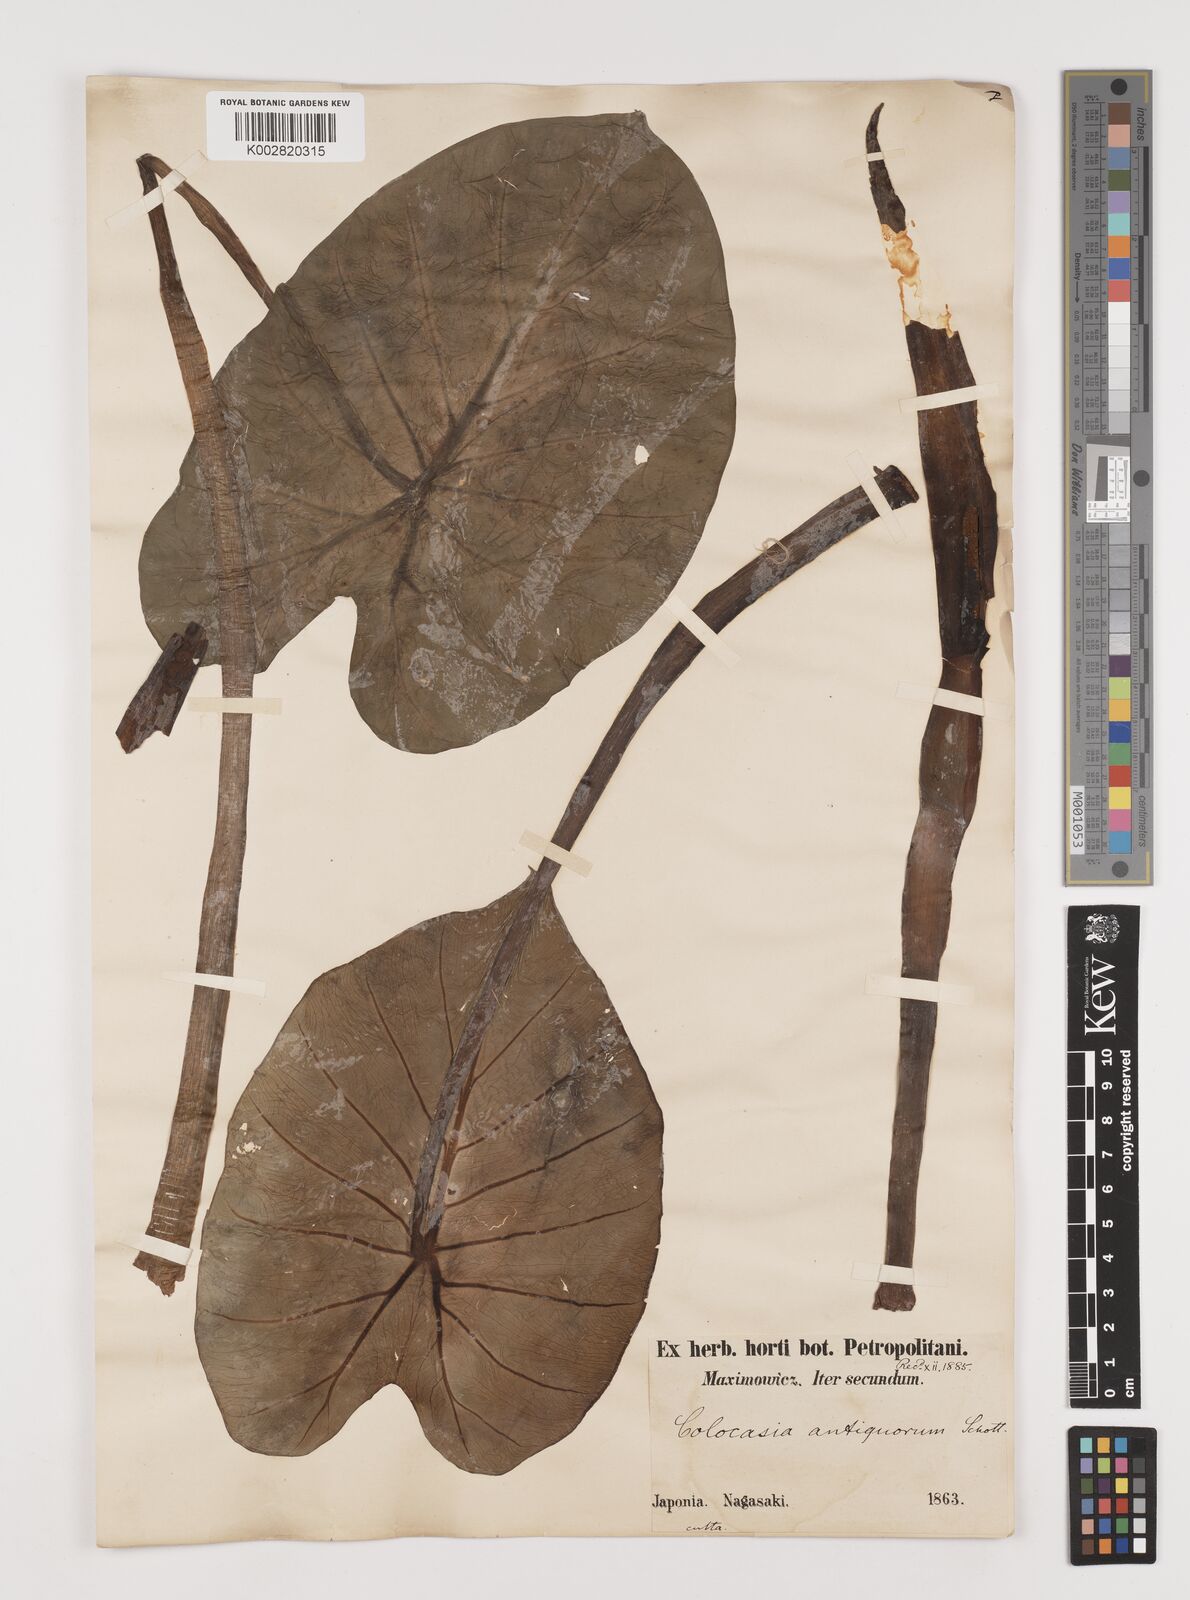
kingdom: Plantae
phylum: Tracheophyta
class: Liliopsida
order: Alismatales
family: Araceae
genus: Colocasia
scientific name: Colocasia esculenta
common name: Taro
